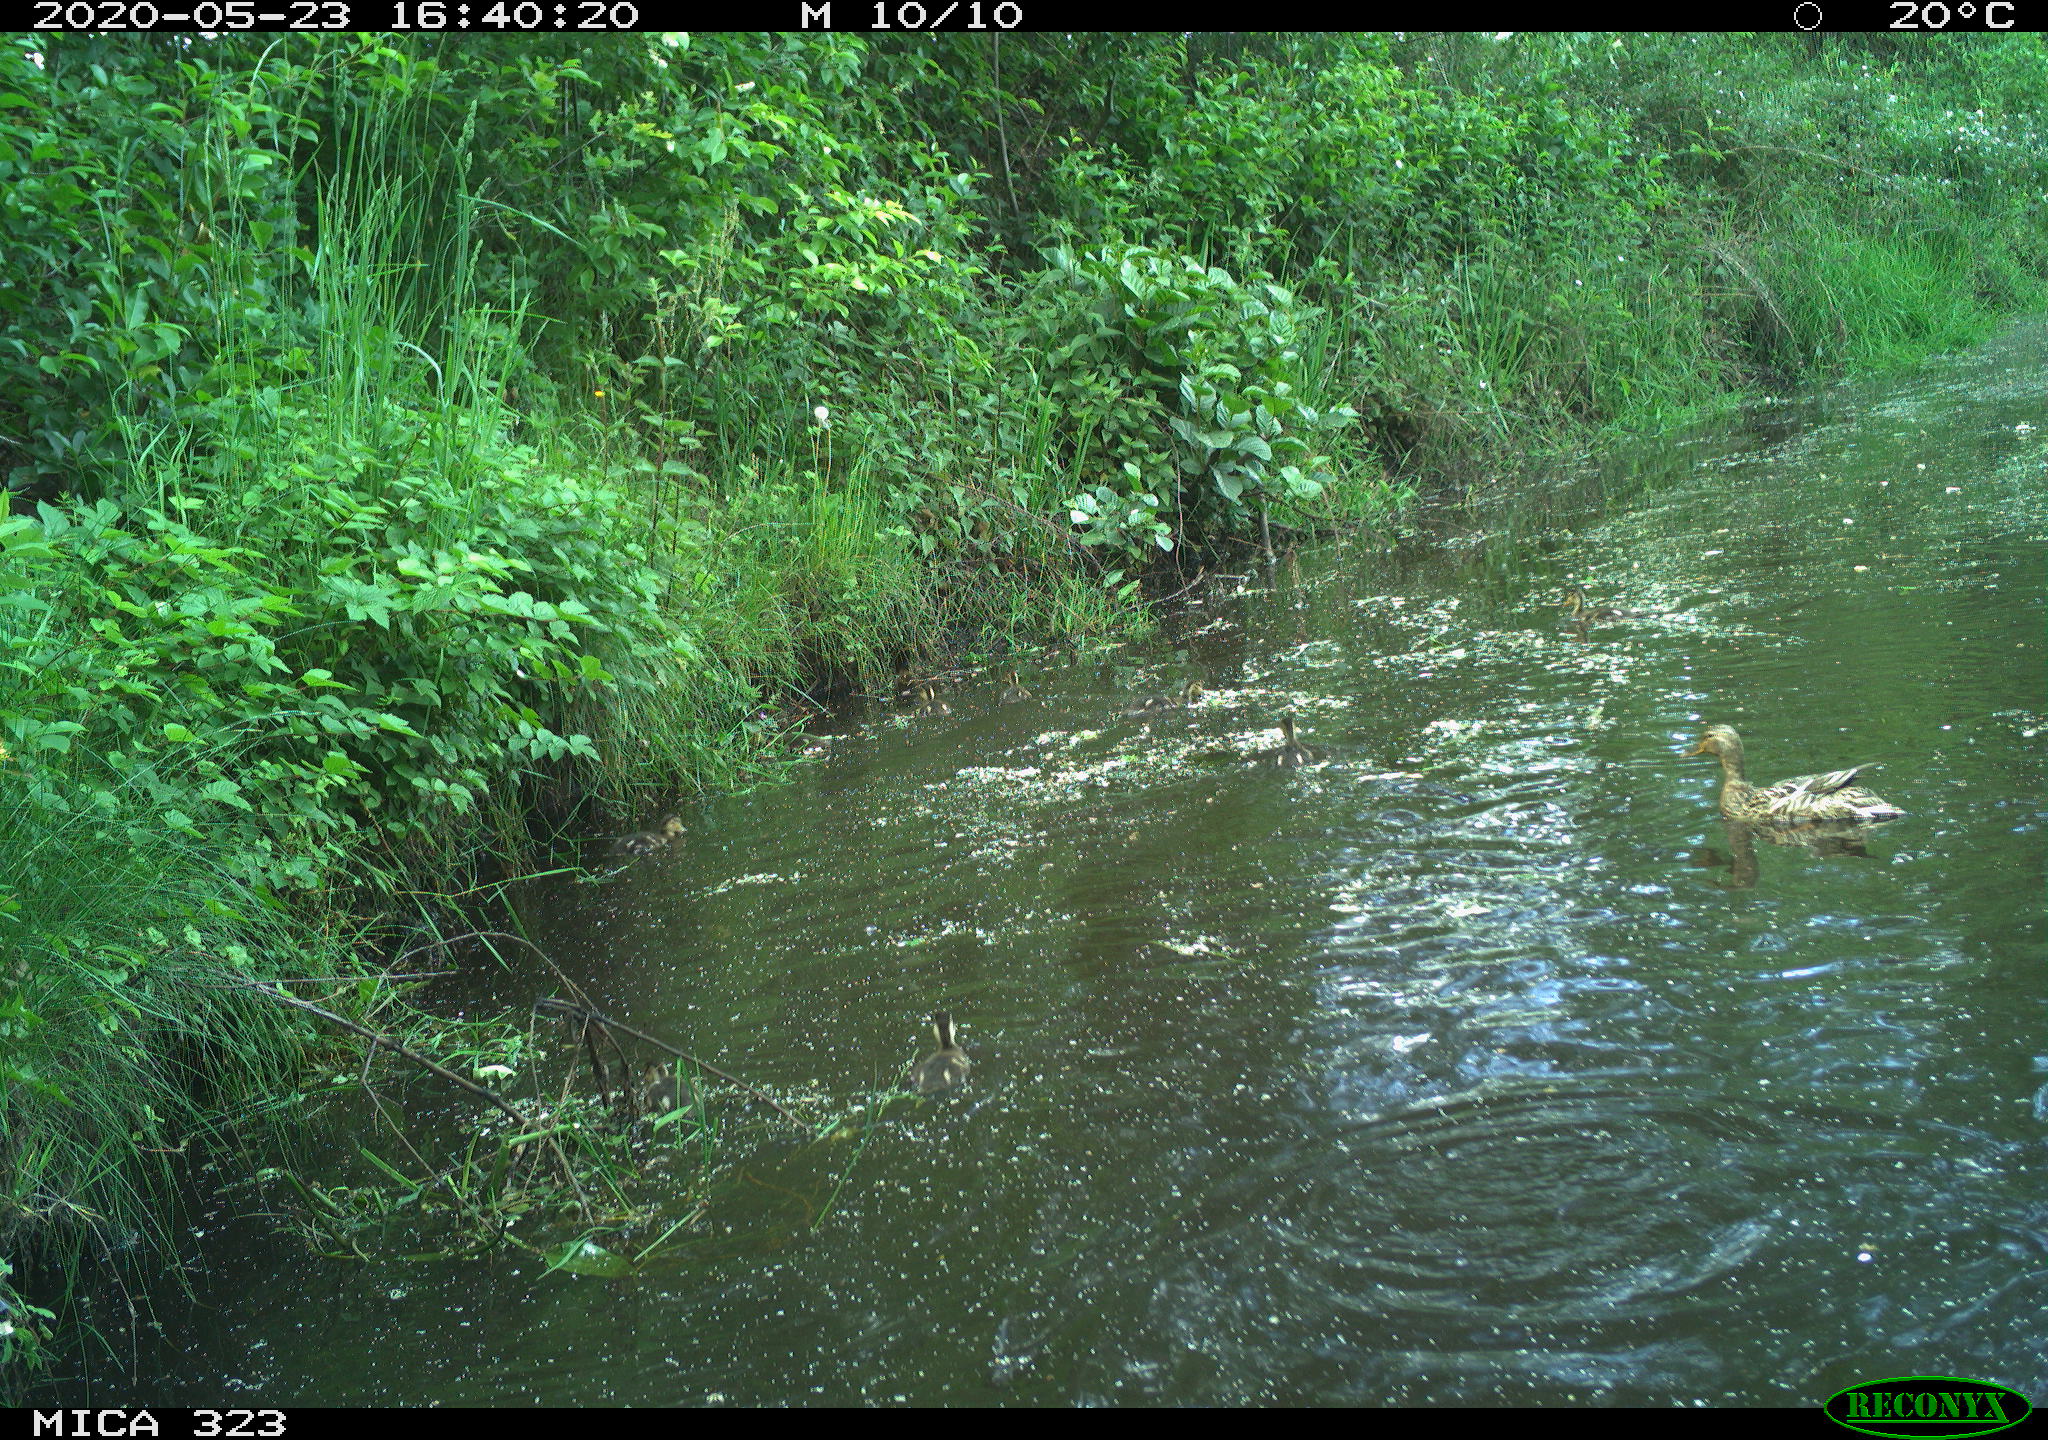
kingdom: Animalia
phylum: Chordata
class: Aves
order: Anseriformes
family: Anatidae
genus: Anas
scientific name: Anas platyrhynchos
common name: Mallard
